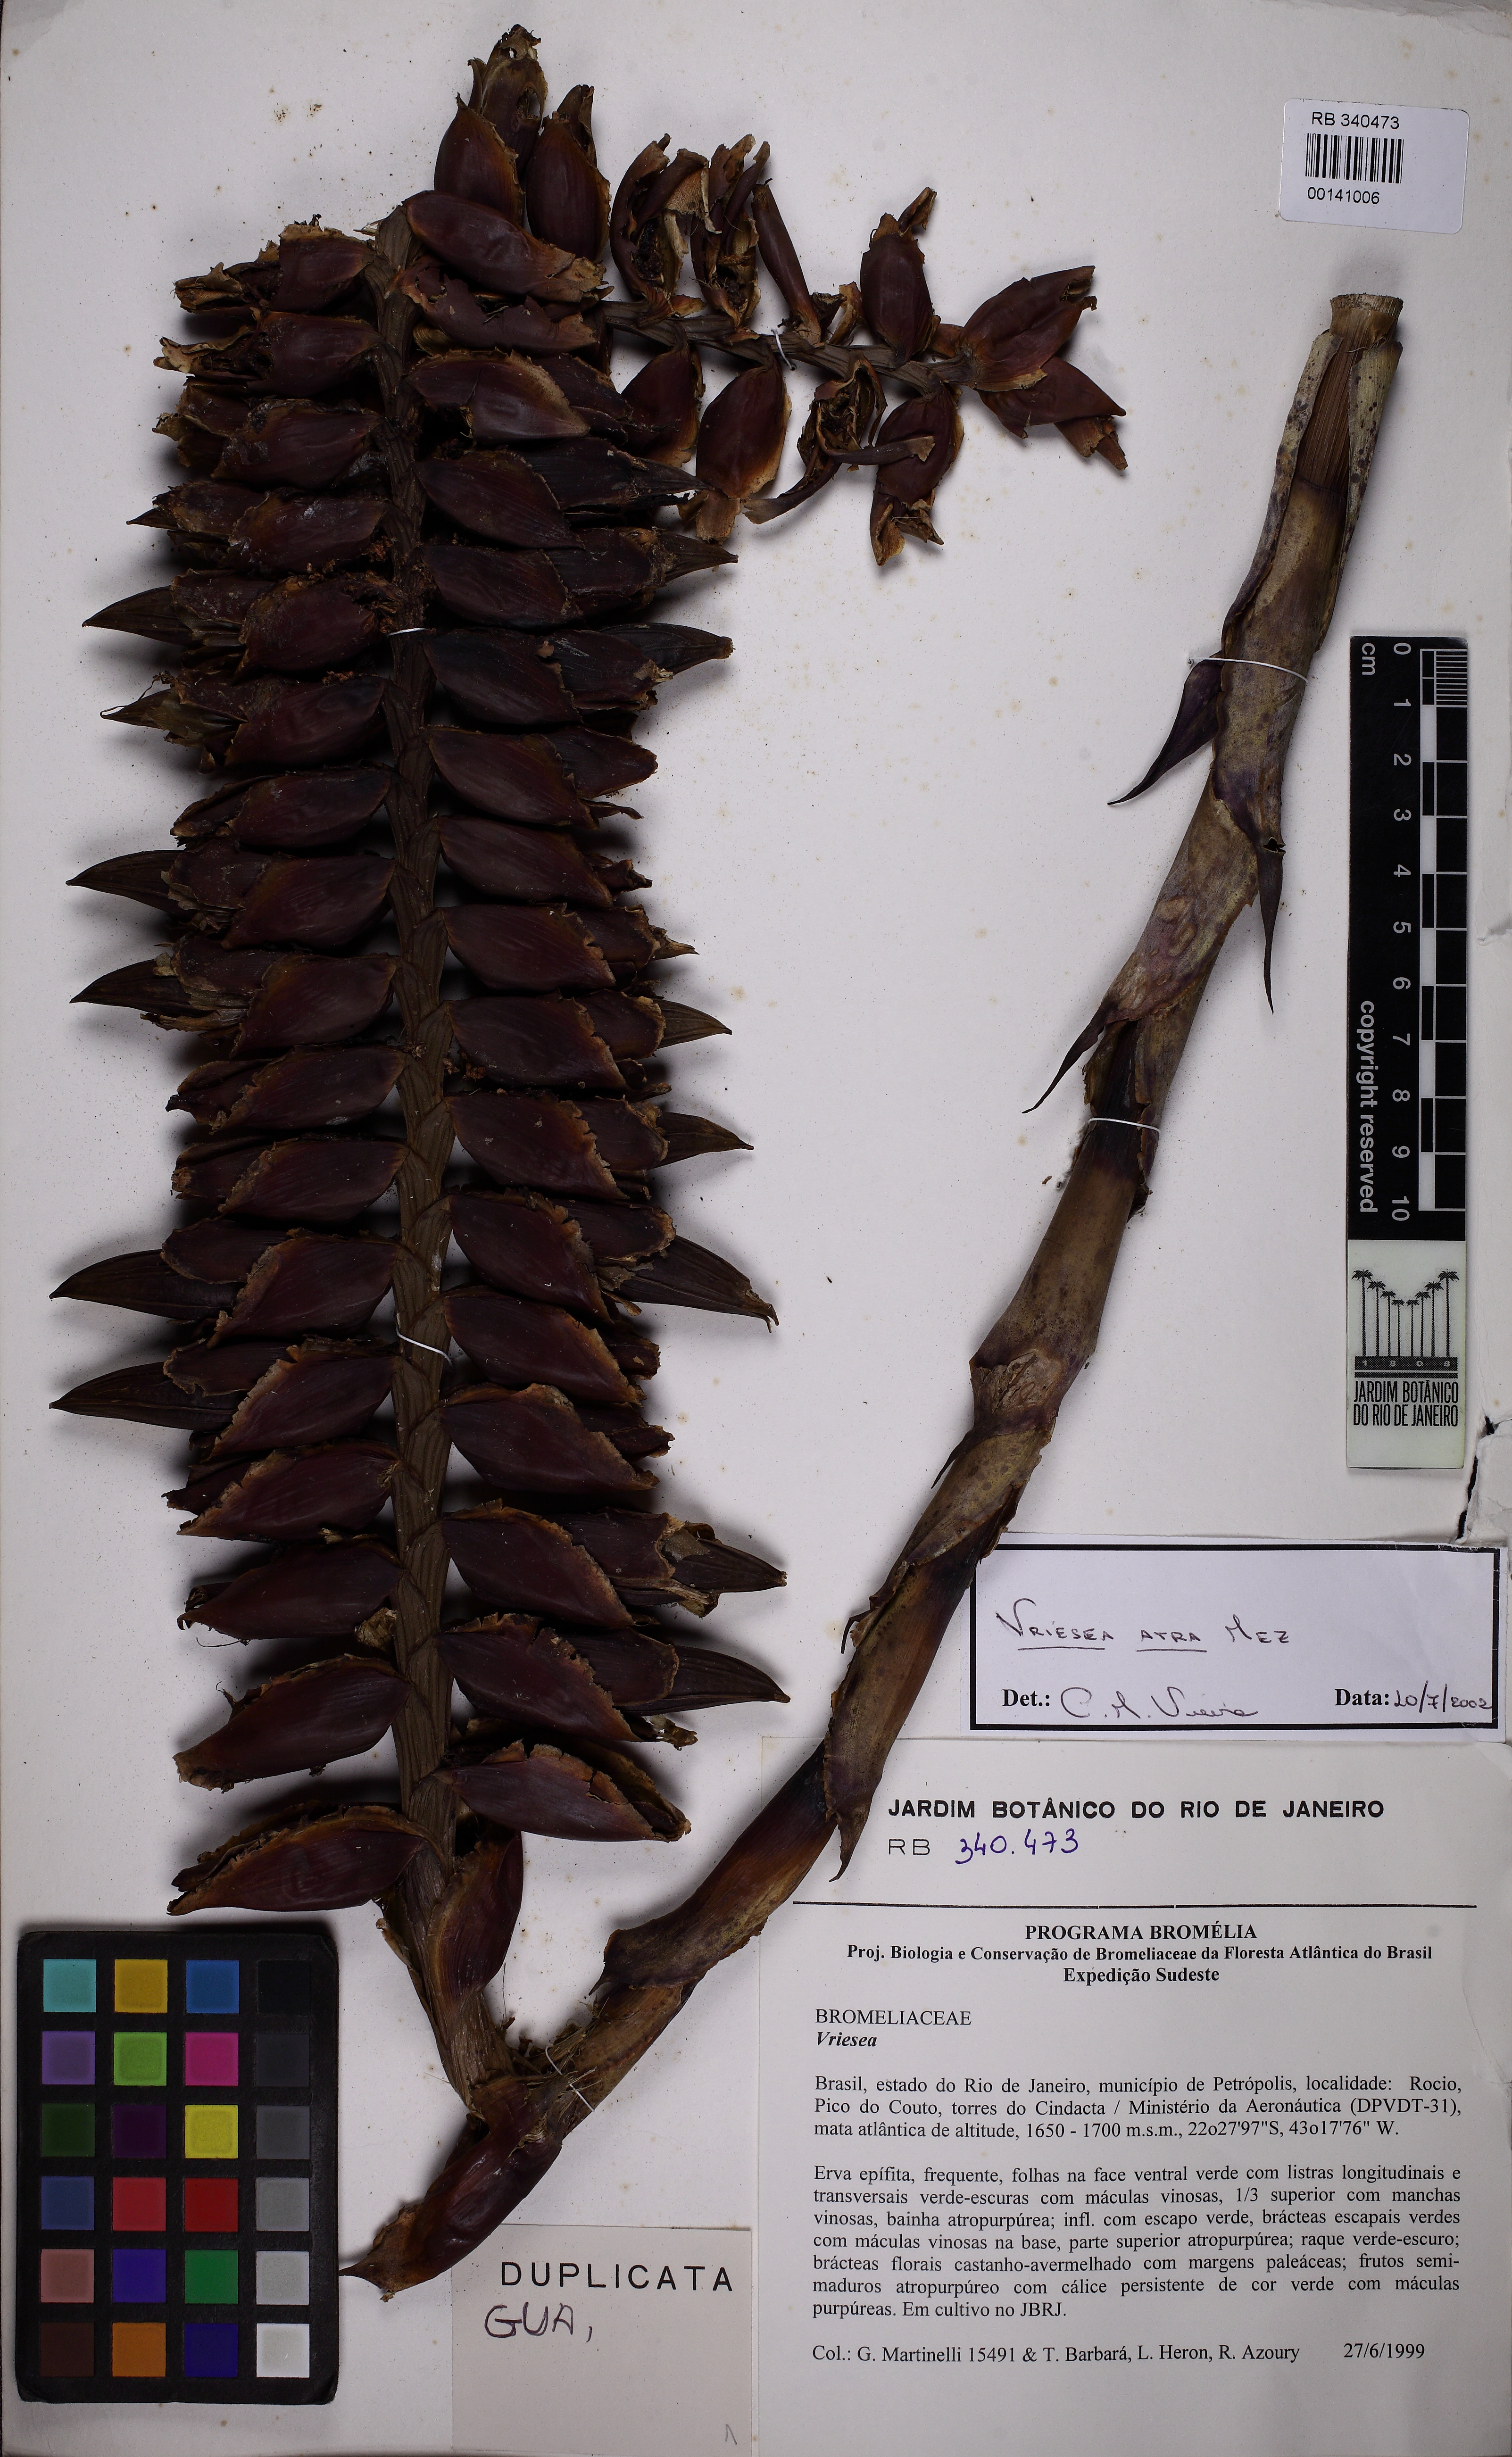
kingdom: Plantae
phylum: Tracheophyta
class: Liliopsida
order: Poales
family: Bromeliaceae
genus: Vriesea
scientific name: Vriesea atra
